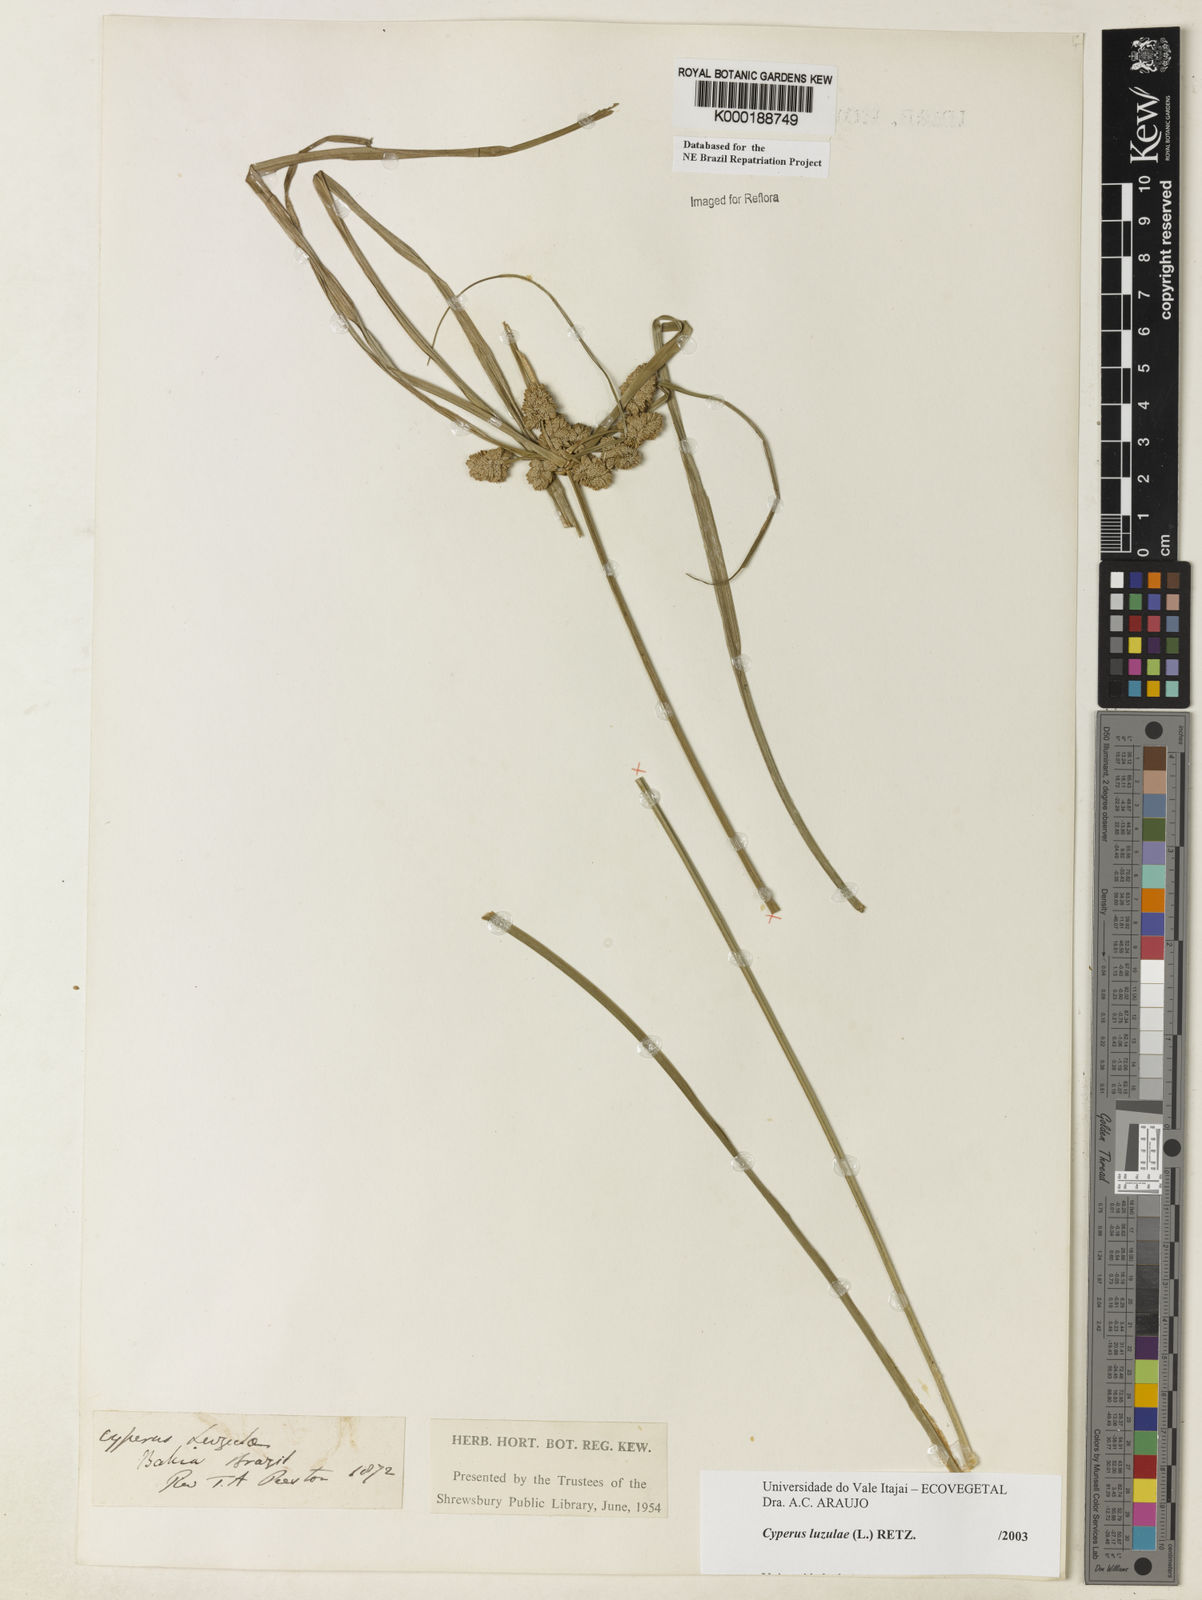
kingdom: Plantae
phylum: Tracheophyta
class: Liliopsida
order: Poales
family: Cyperaceae
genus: Cyperus
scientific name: Cyperus luzulae
